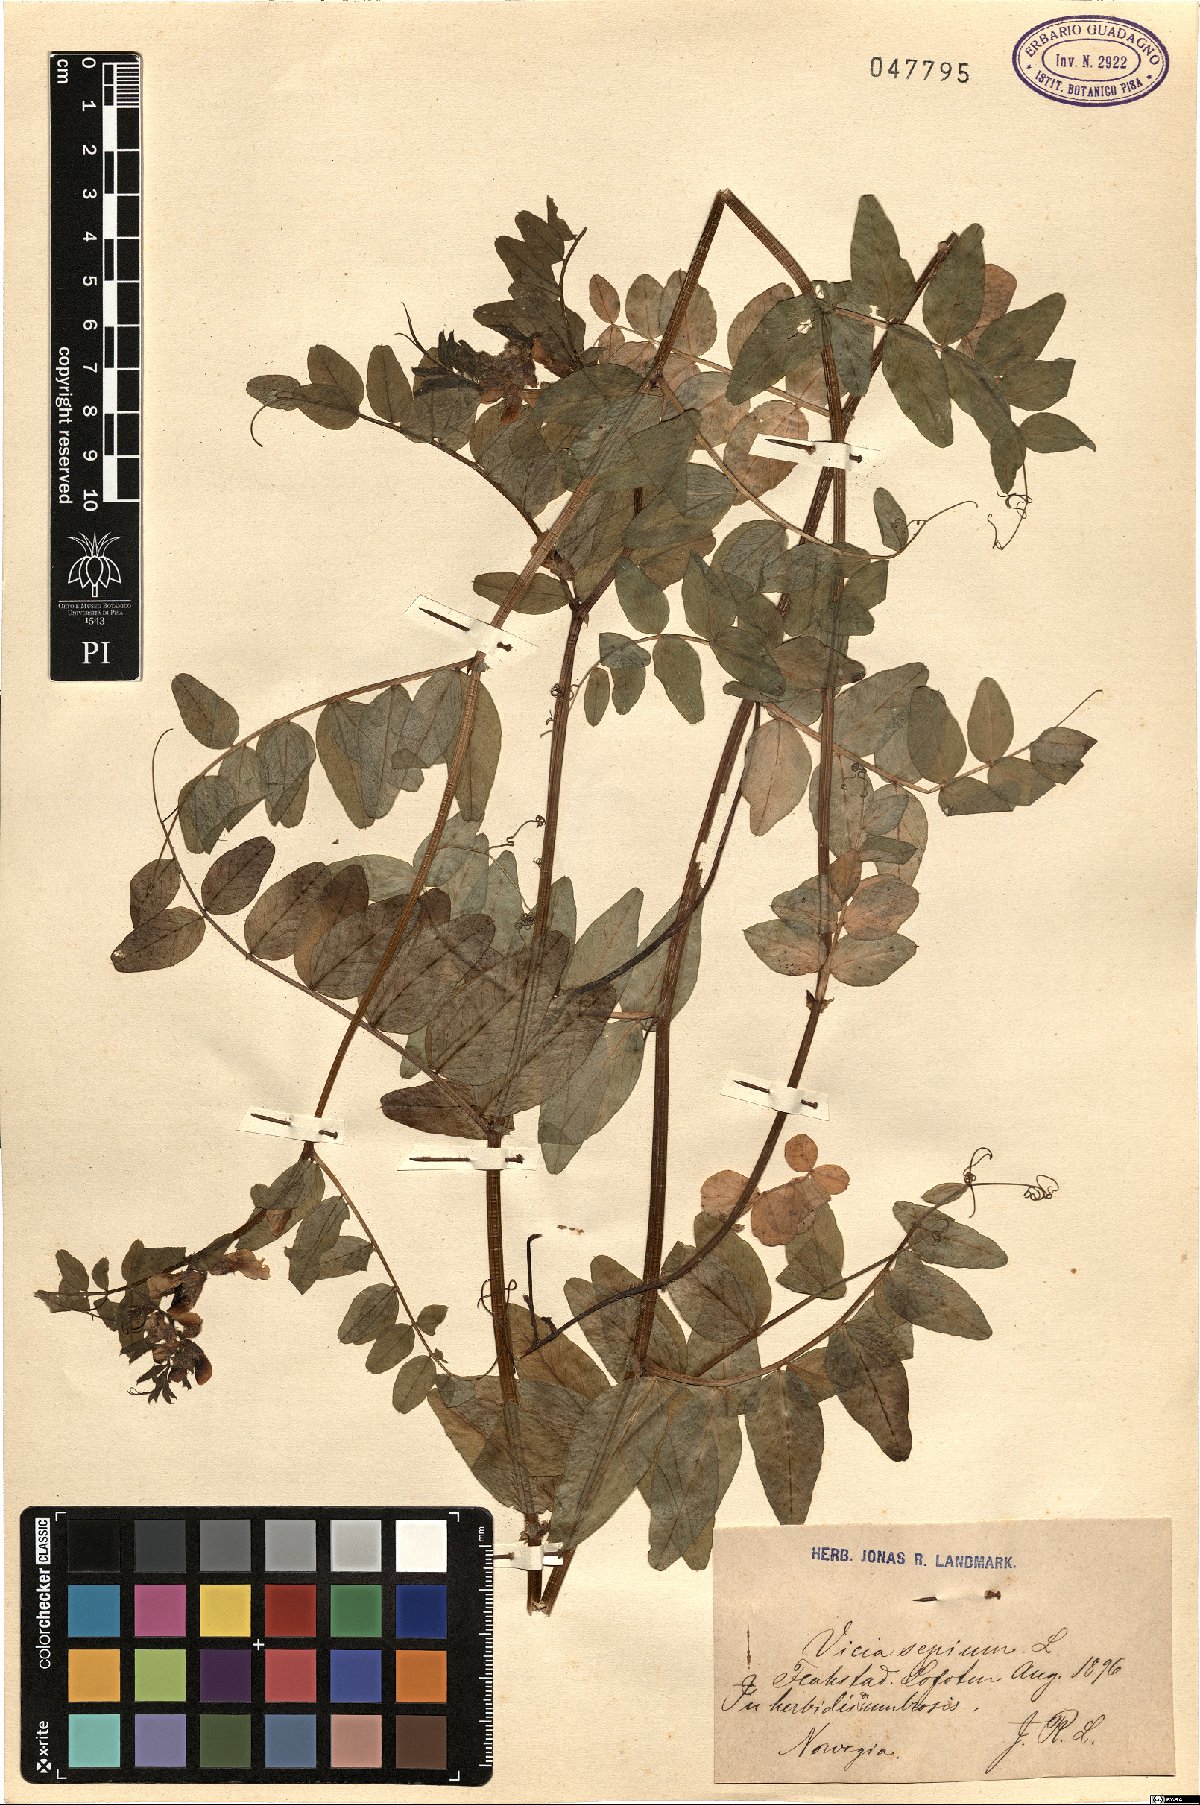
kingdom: Plantae
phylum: Tracheophyta
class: Magnoliopsida
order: Fabales
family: Fabaceae
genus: Vicia
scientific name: Vicia sepium
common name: Bush vetch
